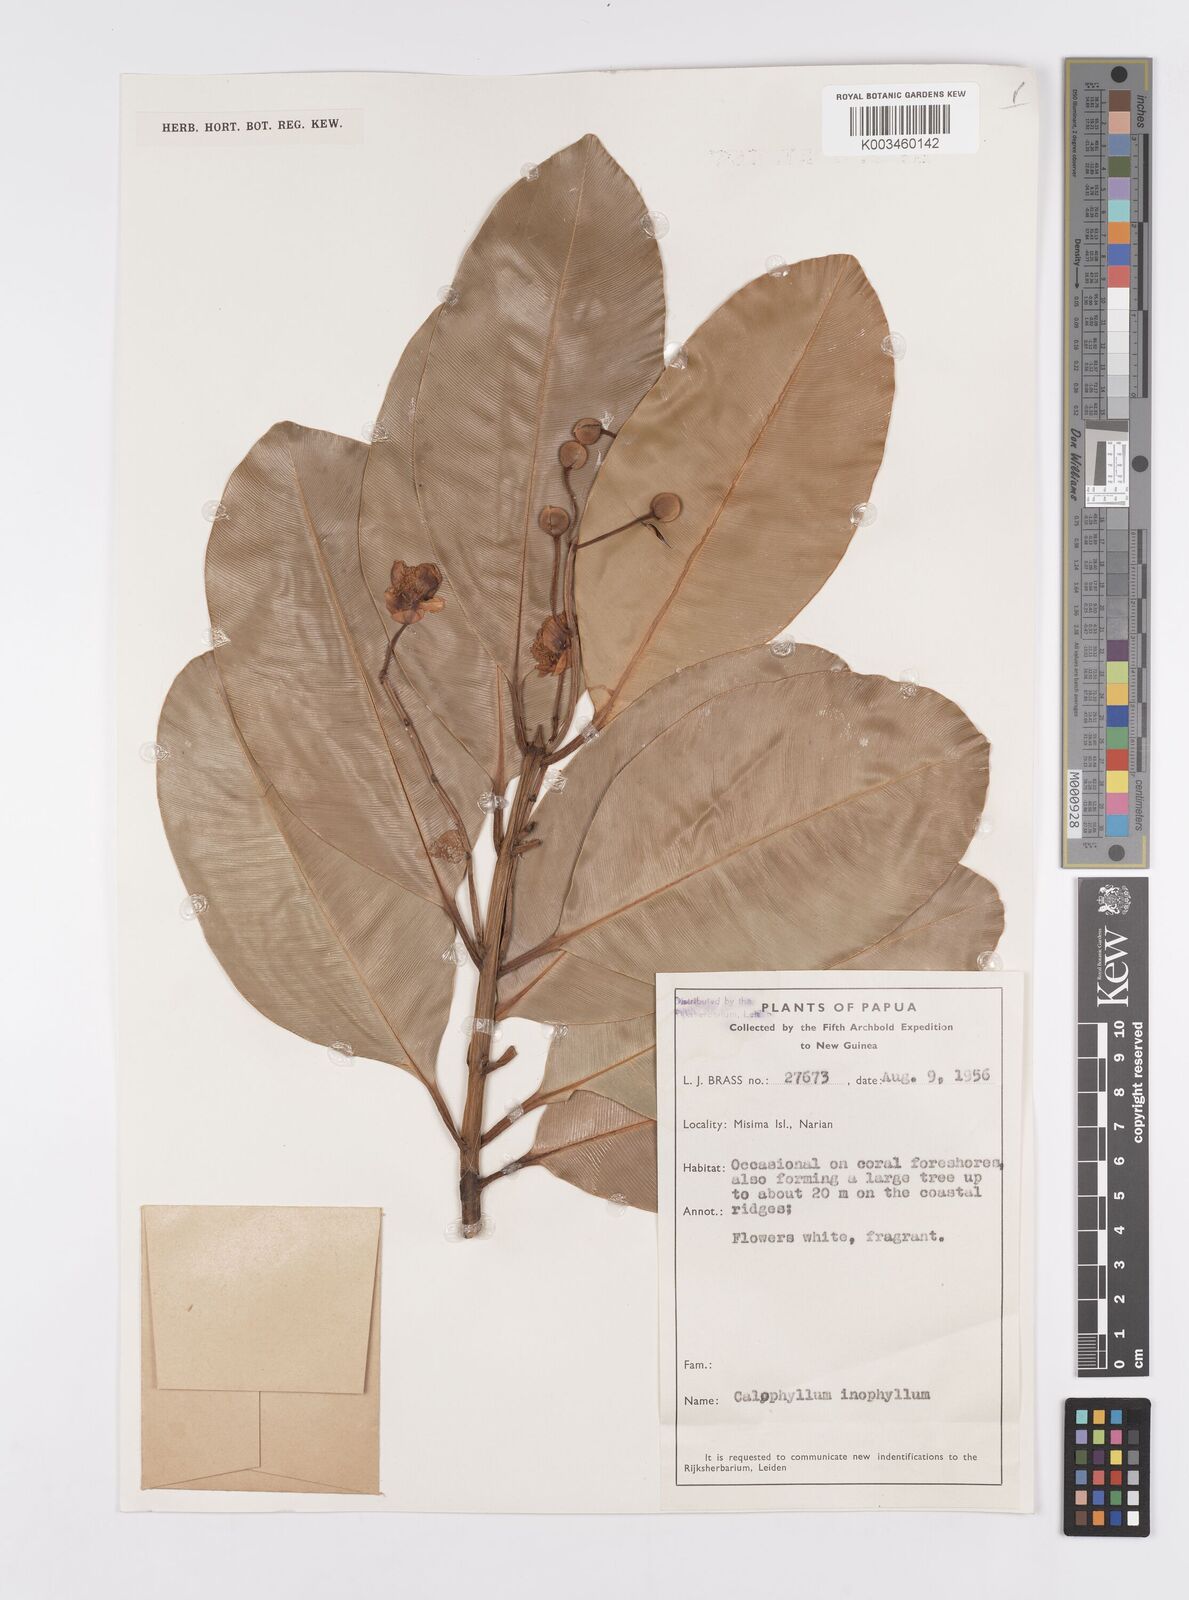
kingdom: Plantae
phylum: Tracheophyta
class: Magnoliopsida
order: Malpighiales
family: Calophyllaceae
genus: Calophyllum
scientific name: Calophyllum inophyllum
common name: Alexandrian laurel
